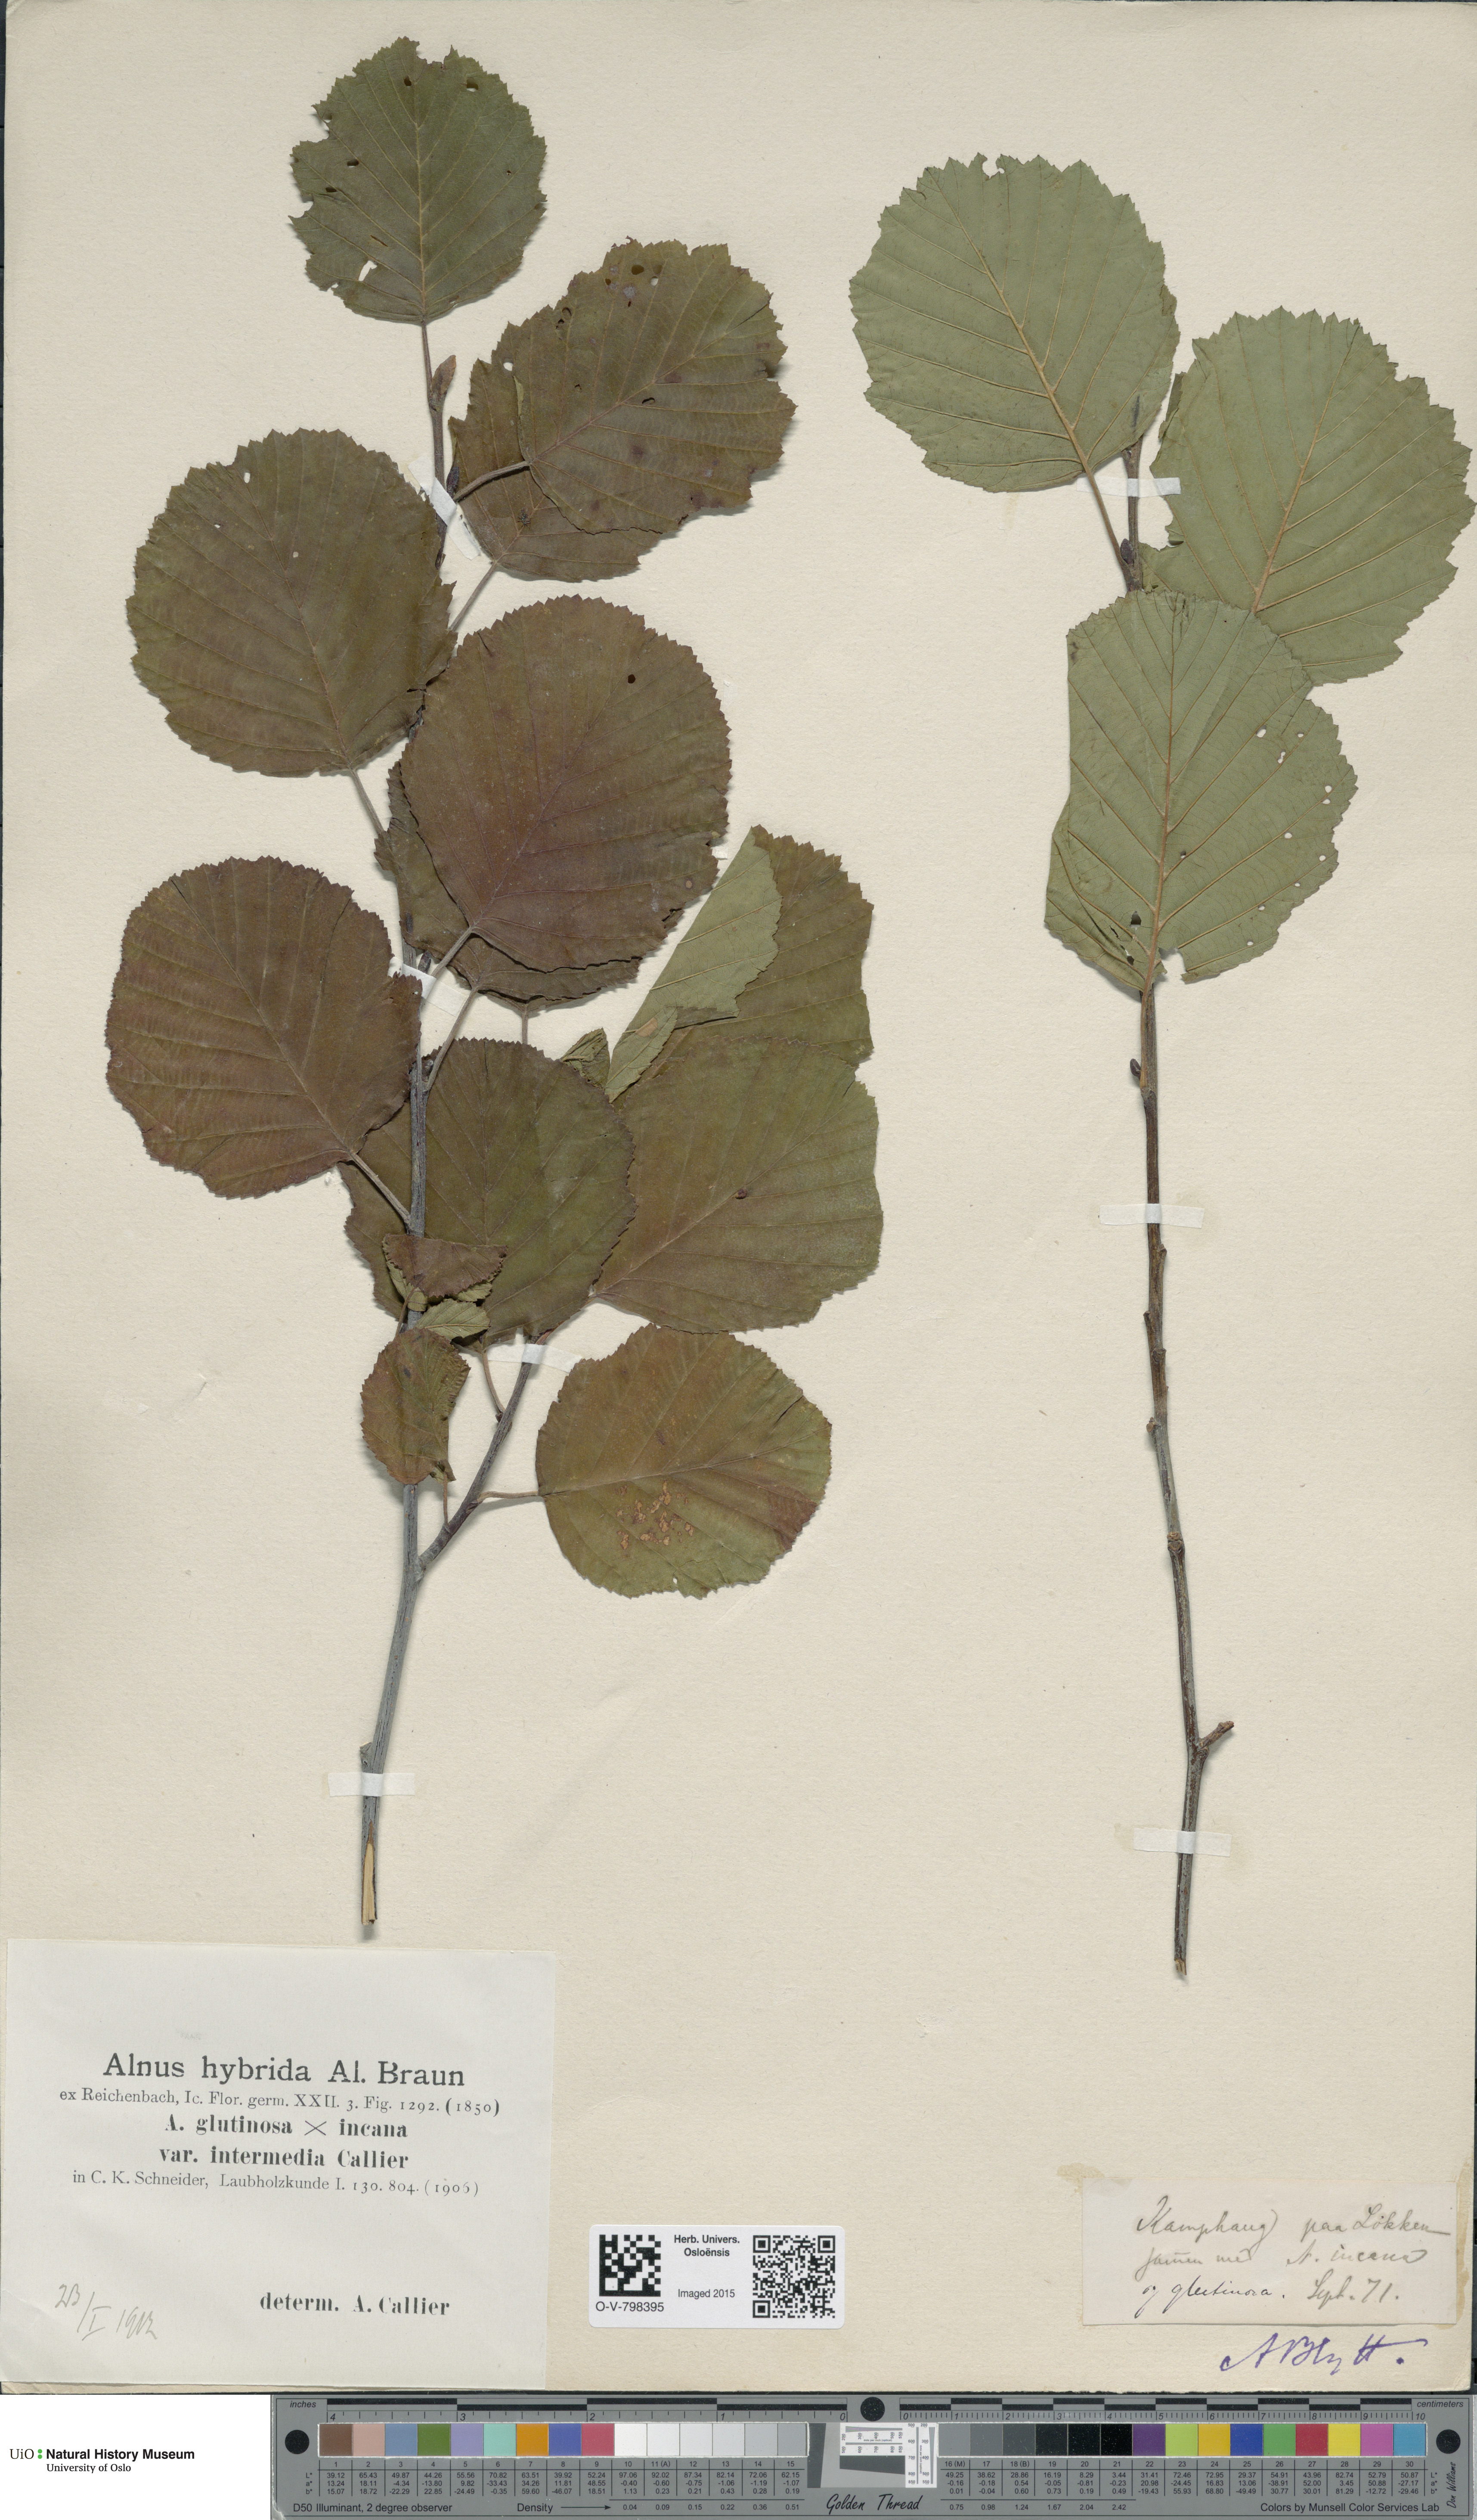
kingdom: Plantae
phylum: Tracheophyta
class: Magnoliopsida
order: Fagales
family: Betulaceae
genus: Alnus
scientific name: Alnus
